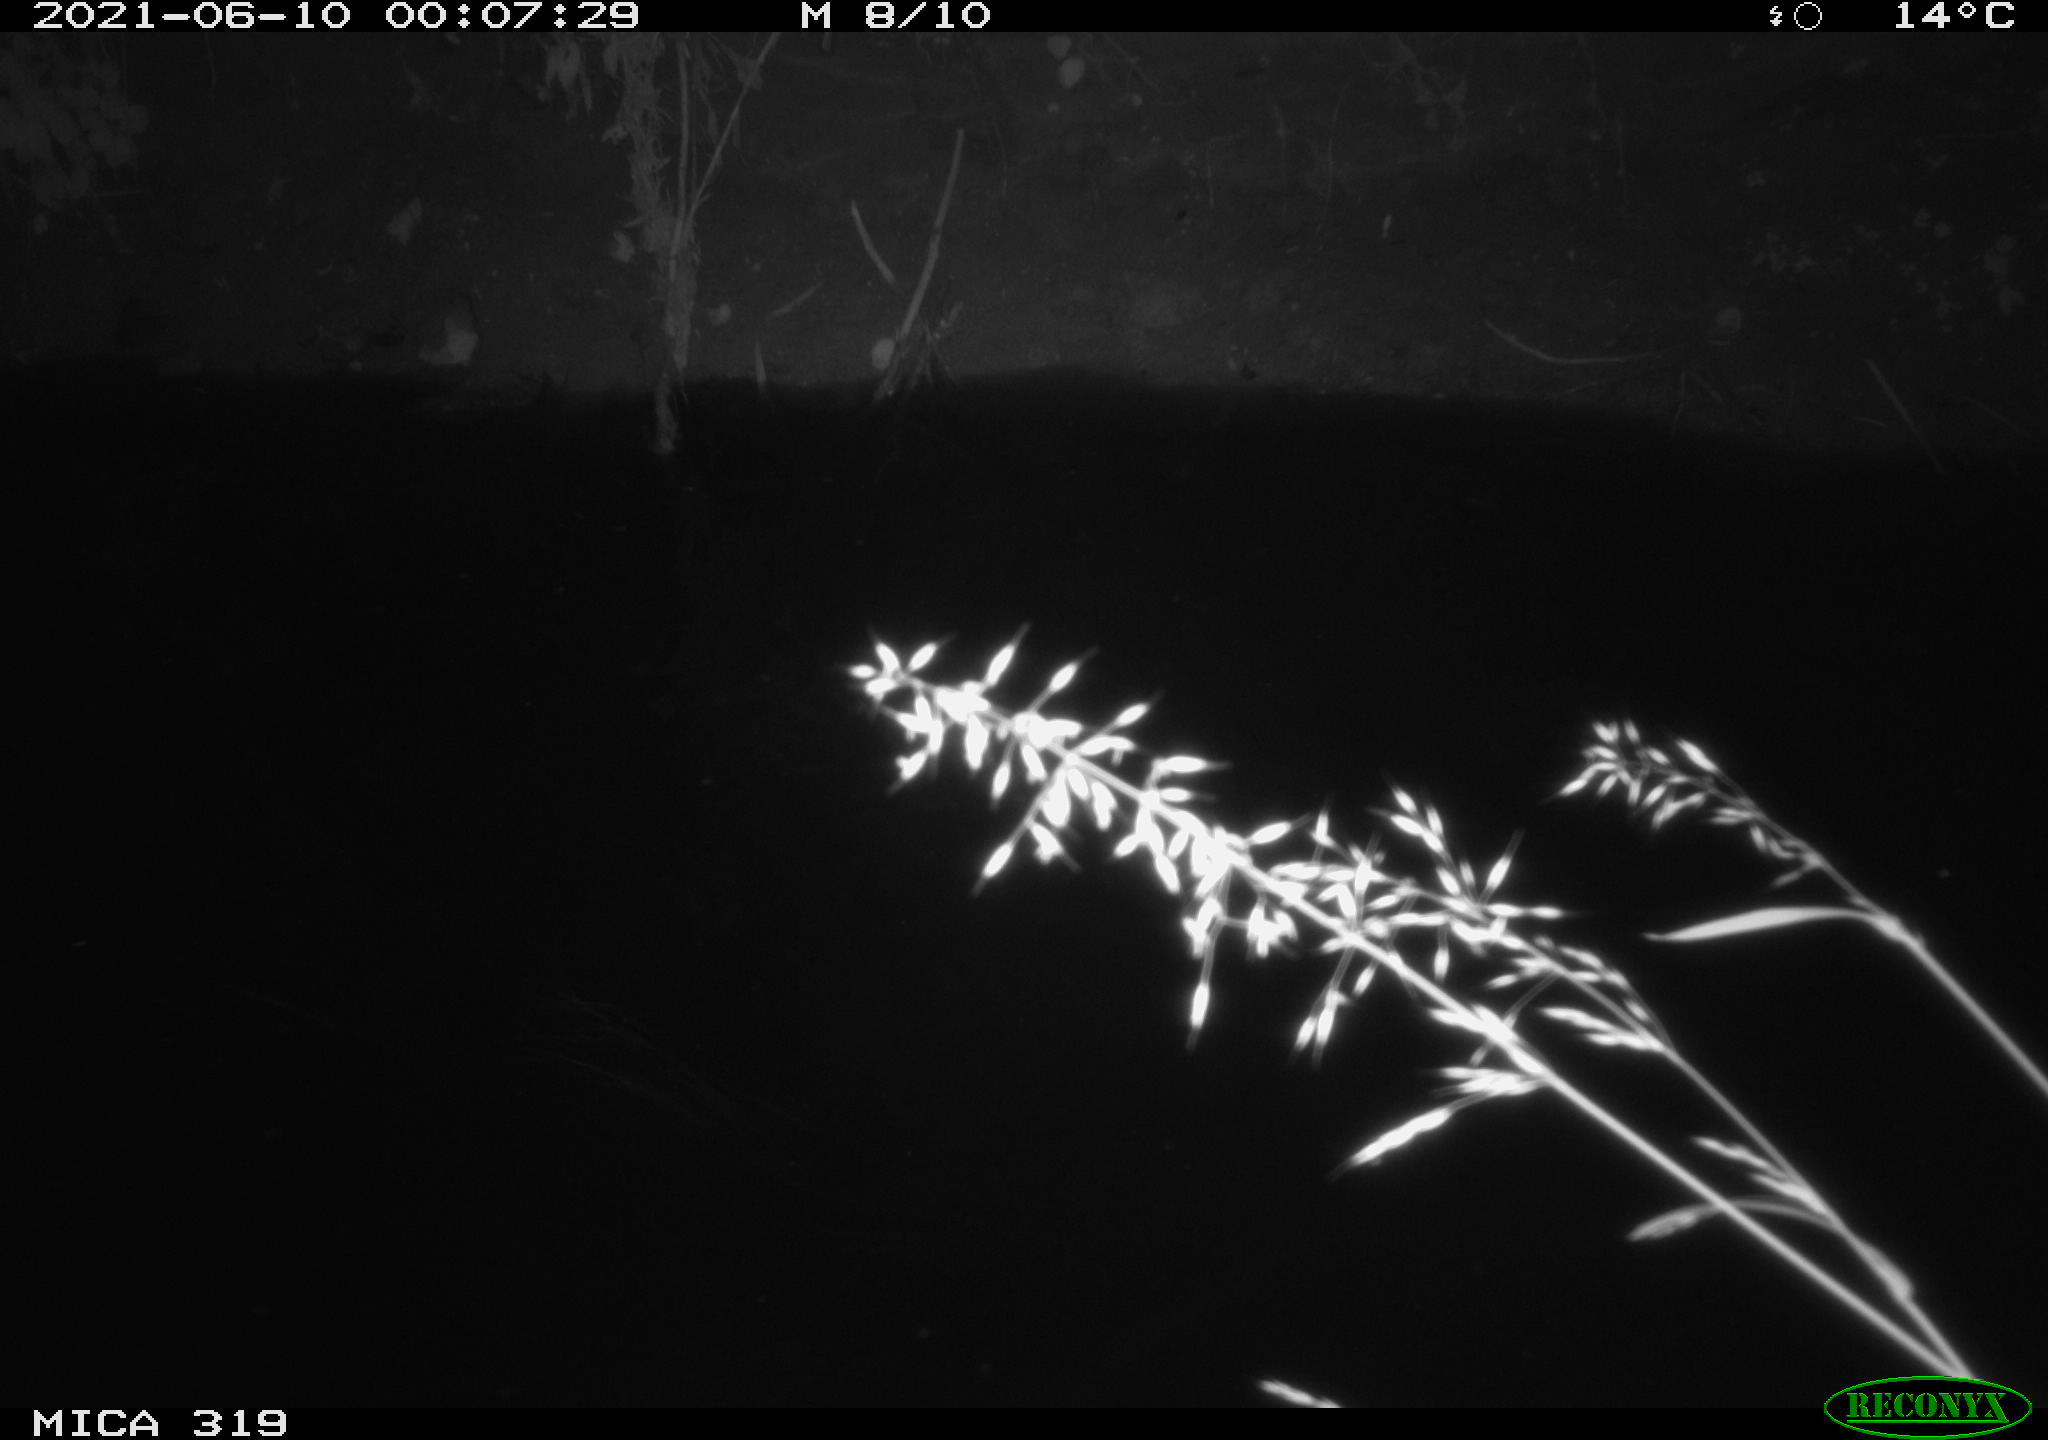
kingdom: Animalia
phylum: Chordata
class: Aves
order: Anseriformes
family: Anatidae
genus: Anas
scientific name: Anas platyrhynchos
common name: Mallard
